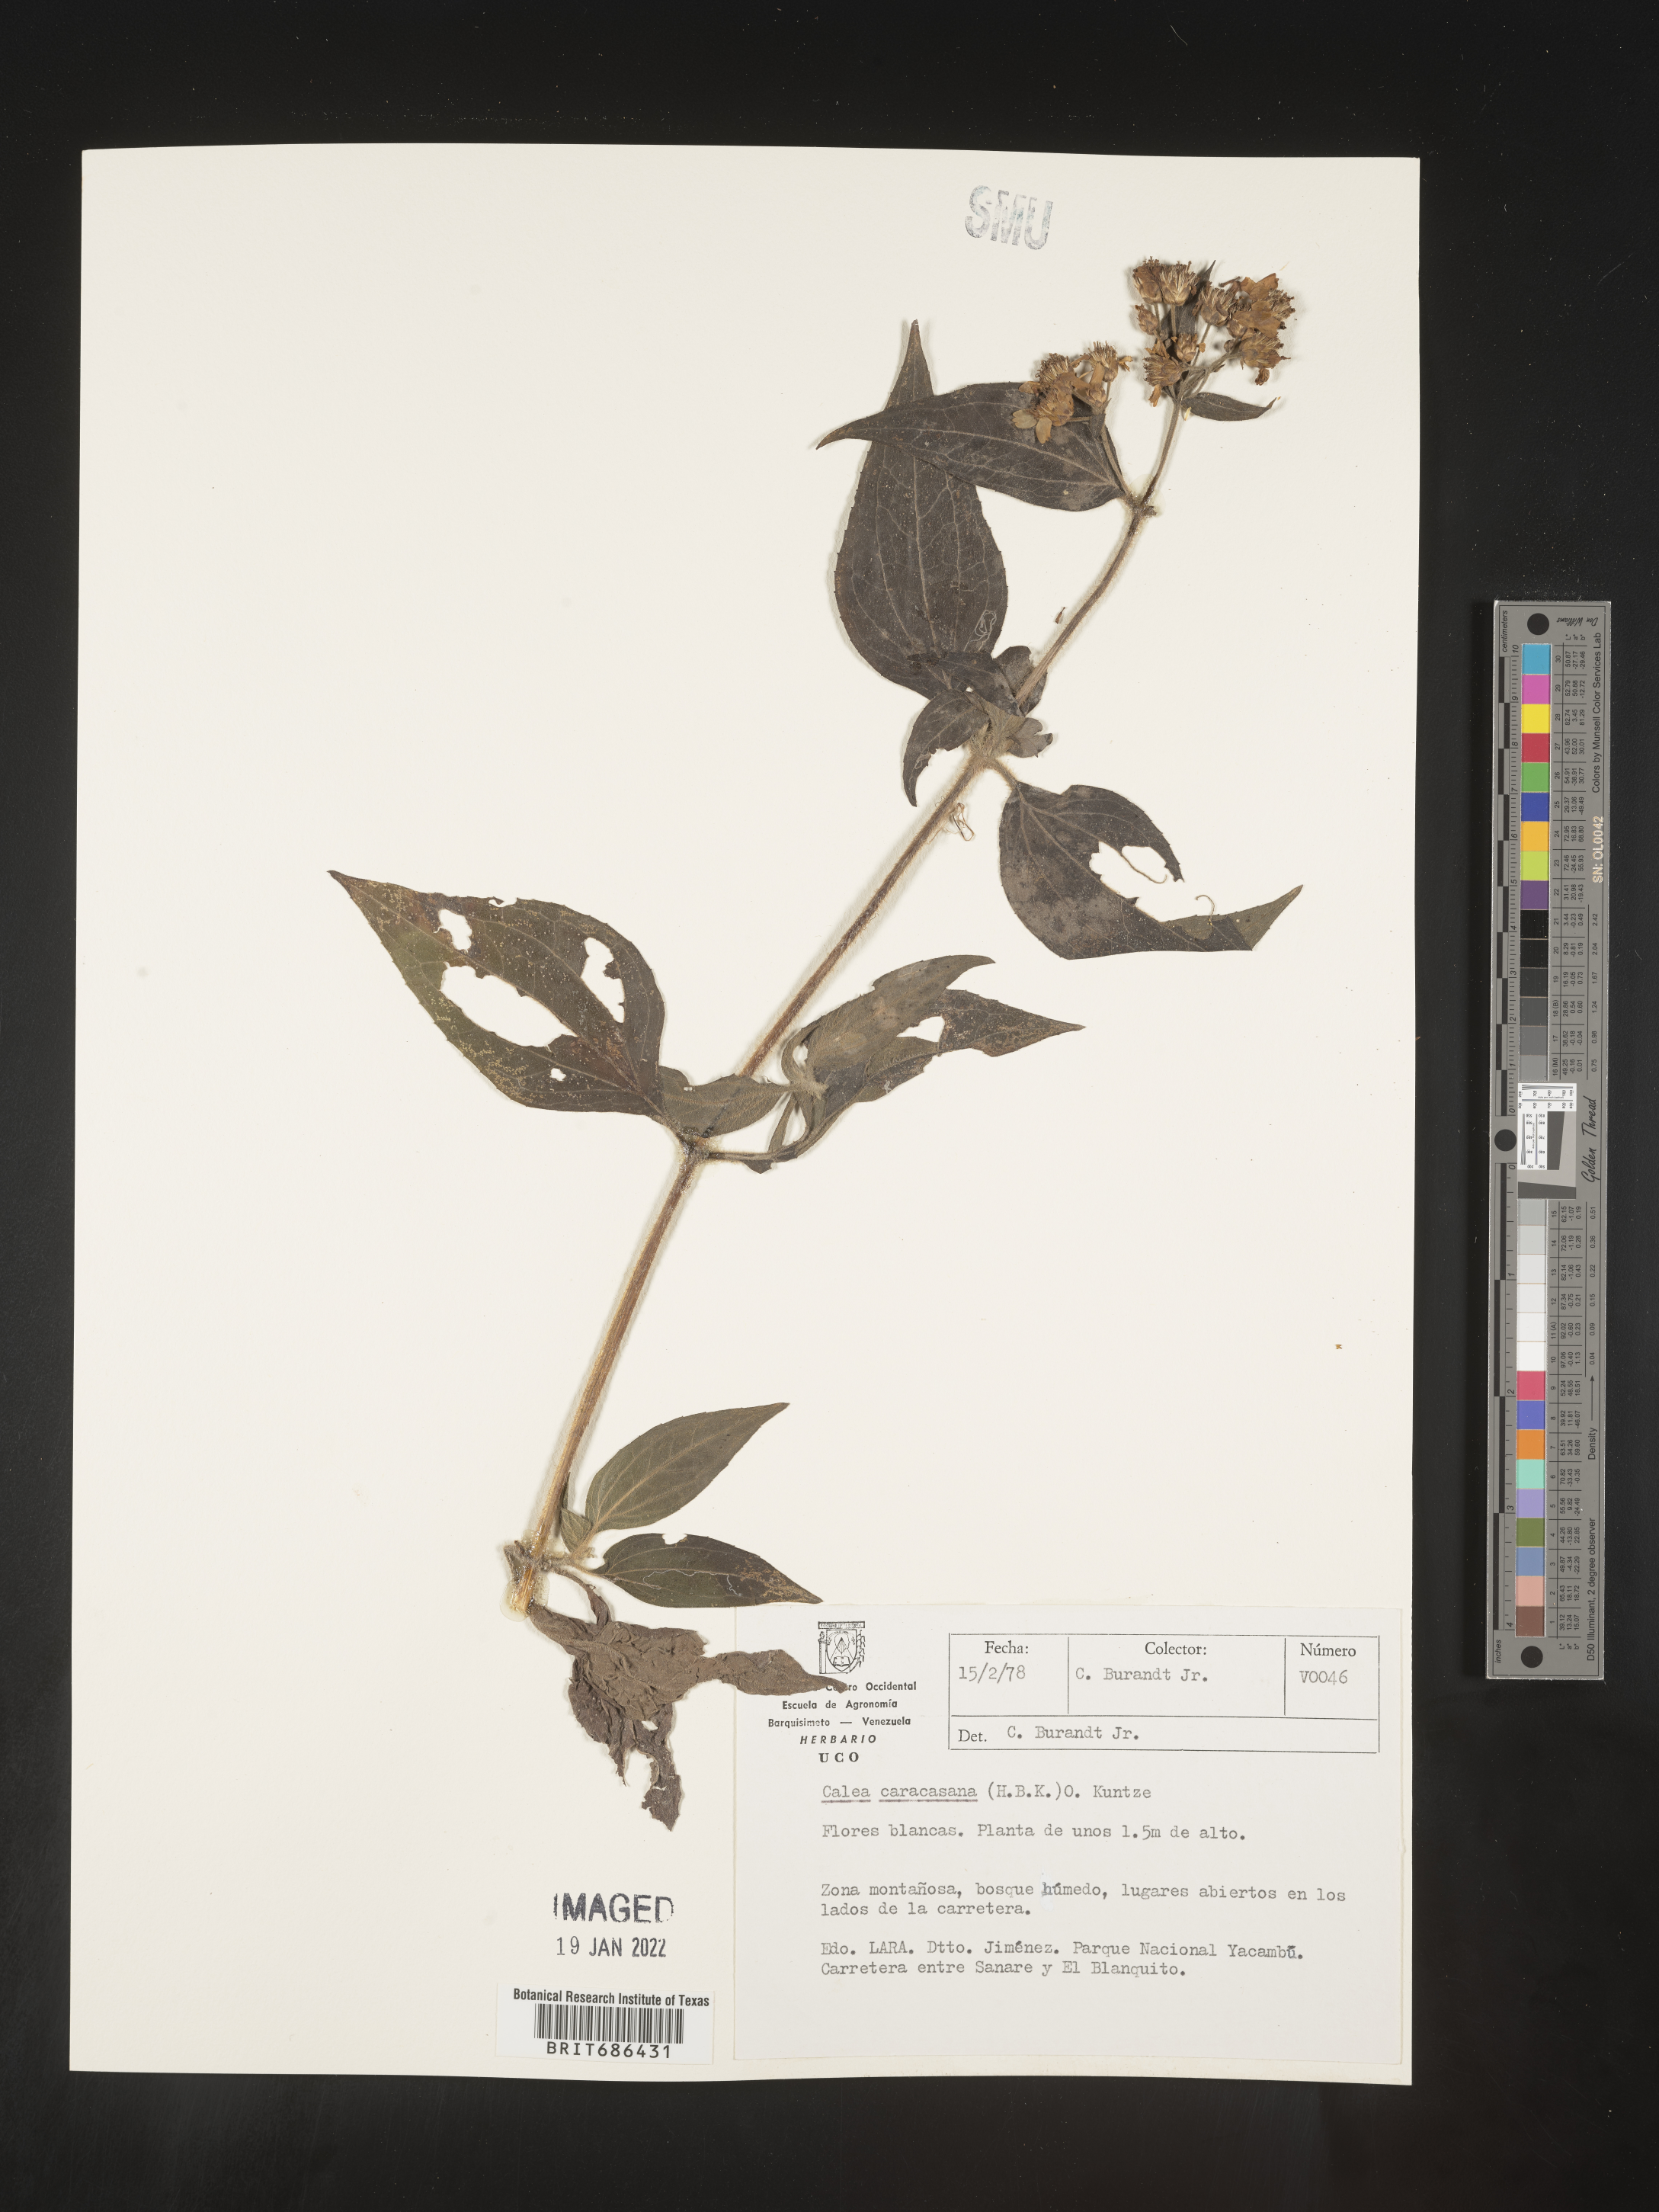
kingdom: Plantae
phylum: Tracheophyta
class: Magnoliopsida
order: Asterales
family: Asteraceae
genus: Alloispermum
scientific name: Alloispermum caracasanum
